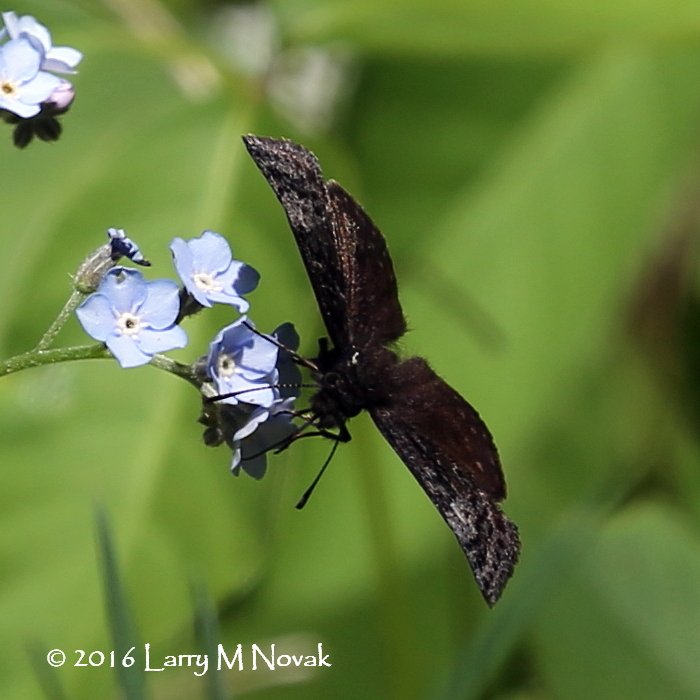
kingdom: Animalia
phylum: Arthropoda
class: Insecta
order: Lepidoptera
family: Hesperiidae
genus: Erynnis
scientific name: Erynnis icelus
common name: Dreamy Duskywing
